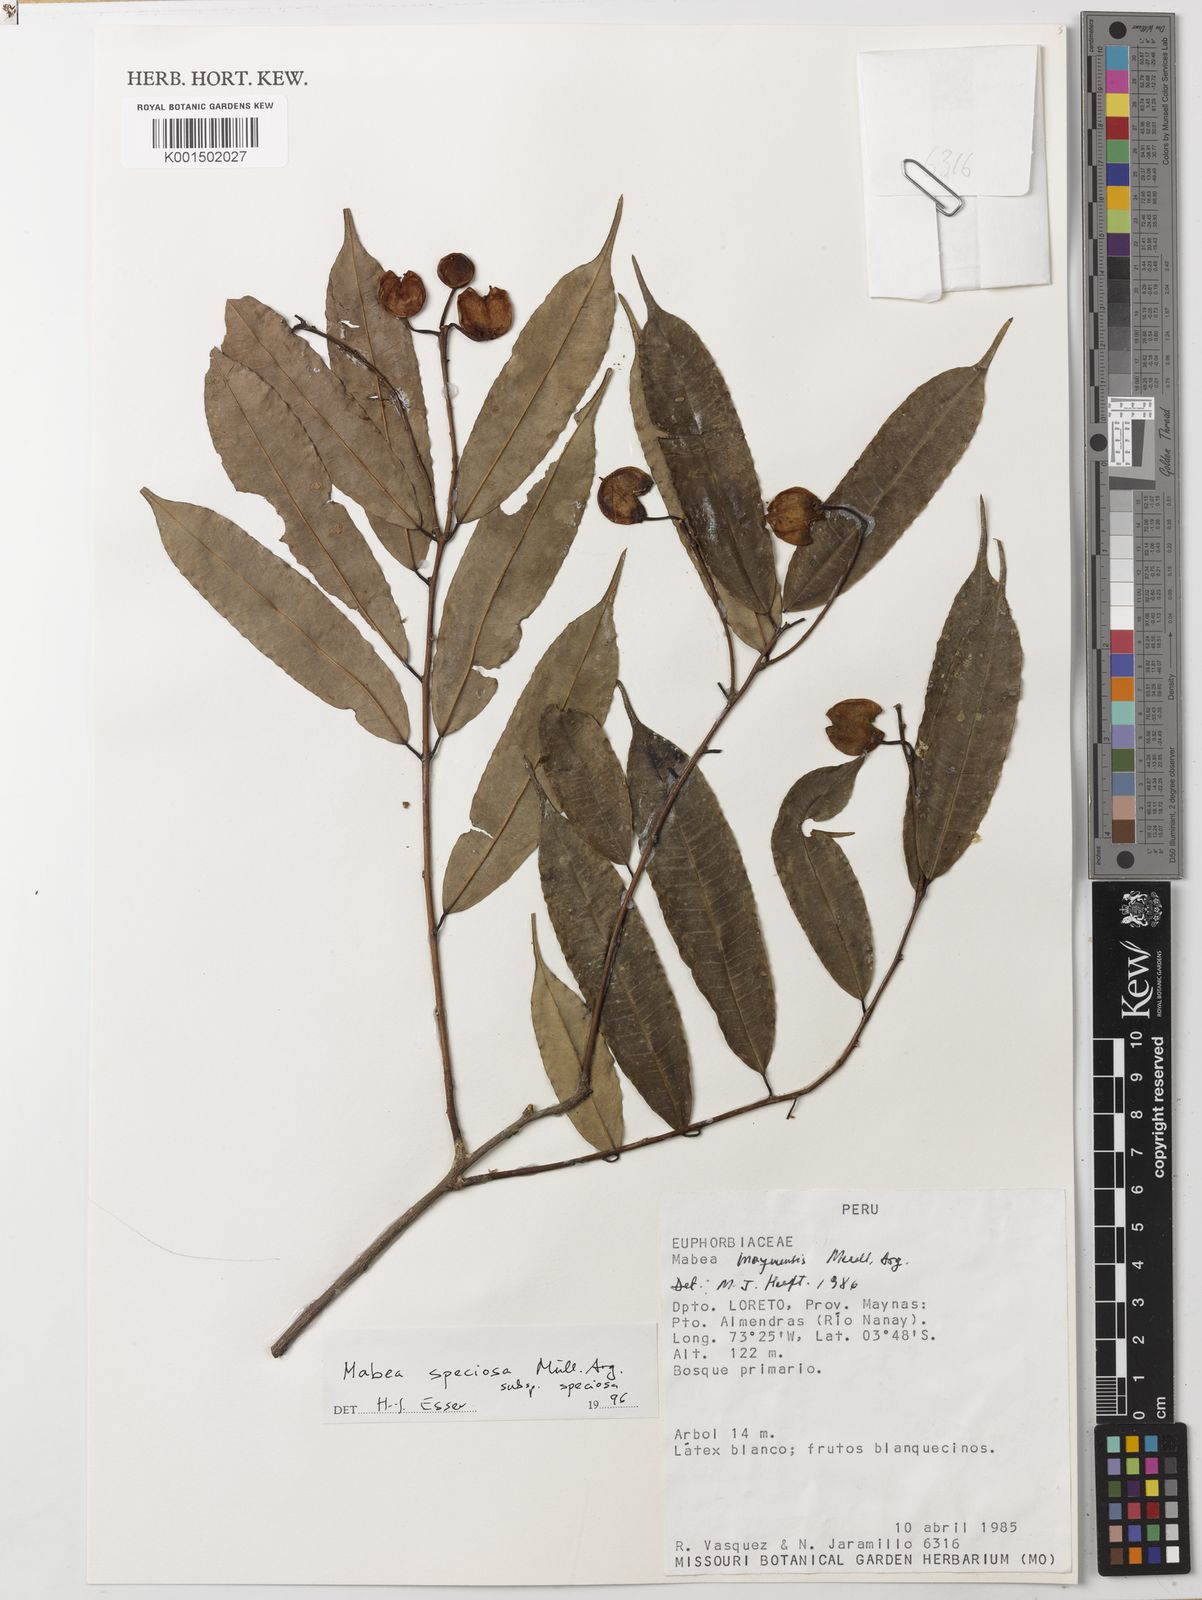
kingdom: Plantae
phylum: Tracheophyta
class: Magnoliopsida
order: Malpighiales
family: Euphorbiaceae
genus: Mabea
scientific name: Mabea speciosa
